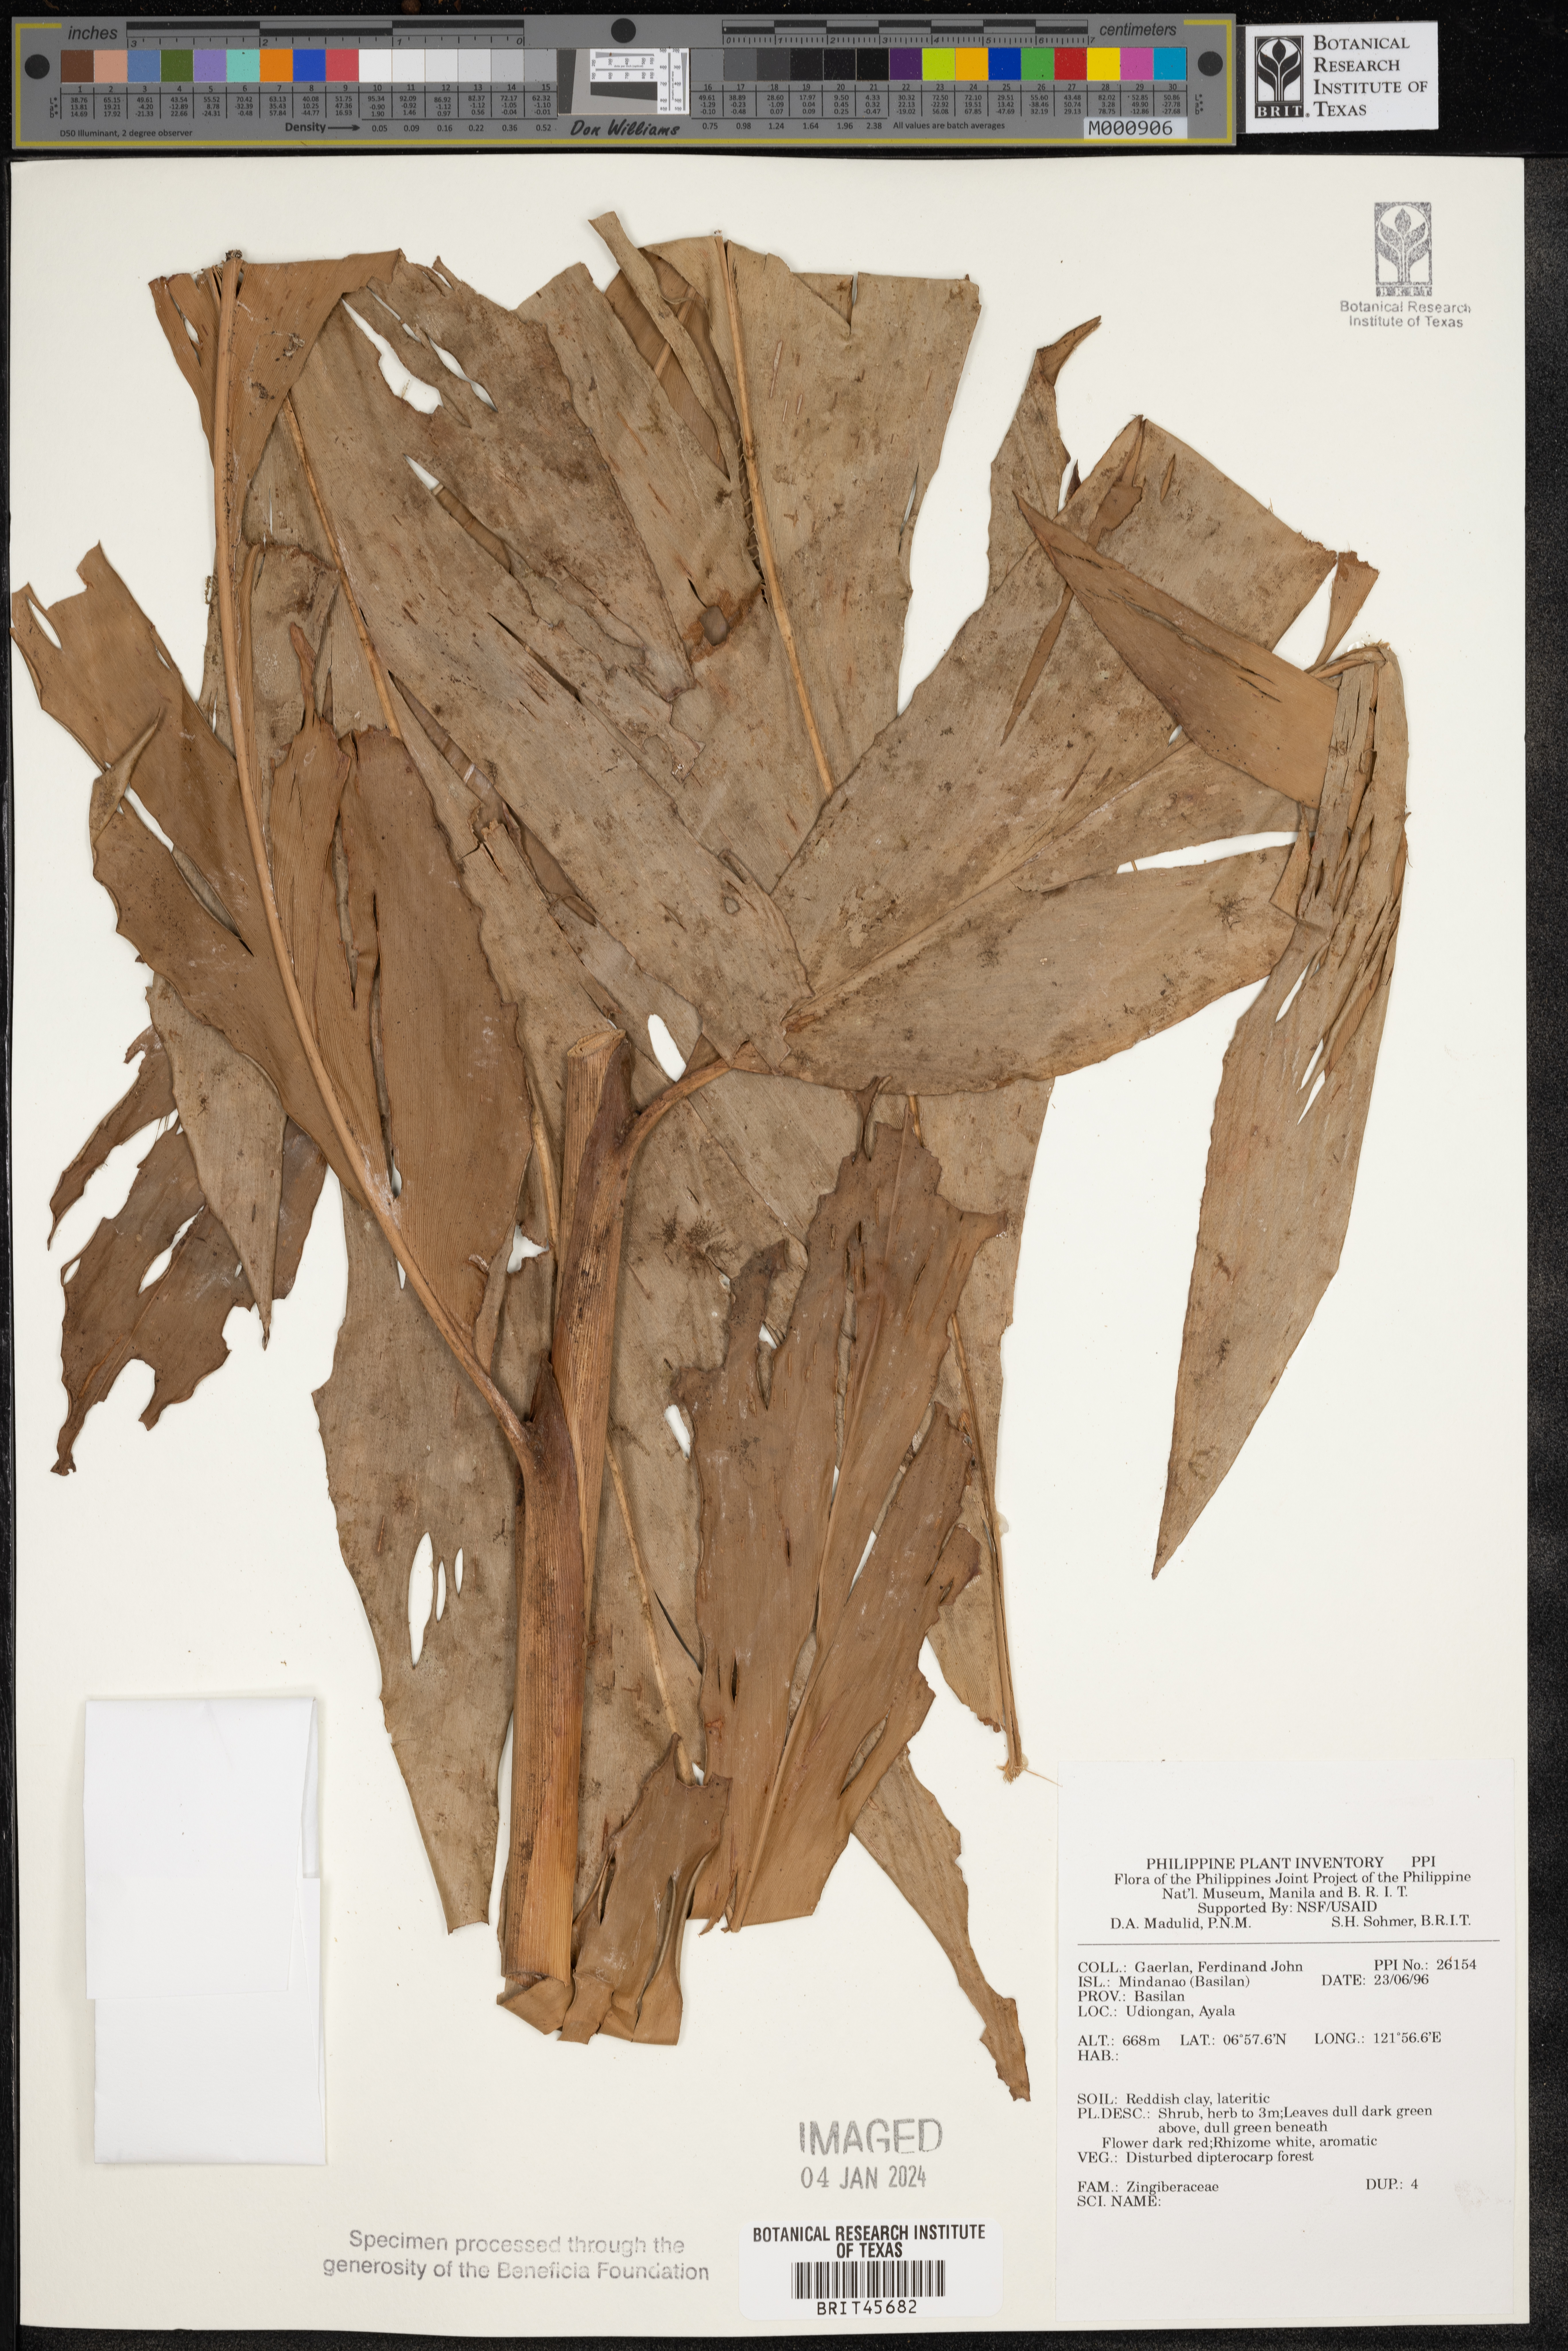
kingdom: Plantae
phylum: Tracheophyta
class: Liliopsida
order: Zingiberales
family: Zingiberaceae
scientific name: Zingiberaceae
